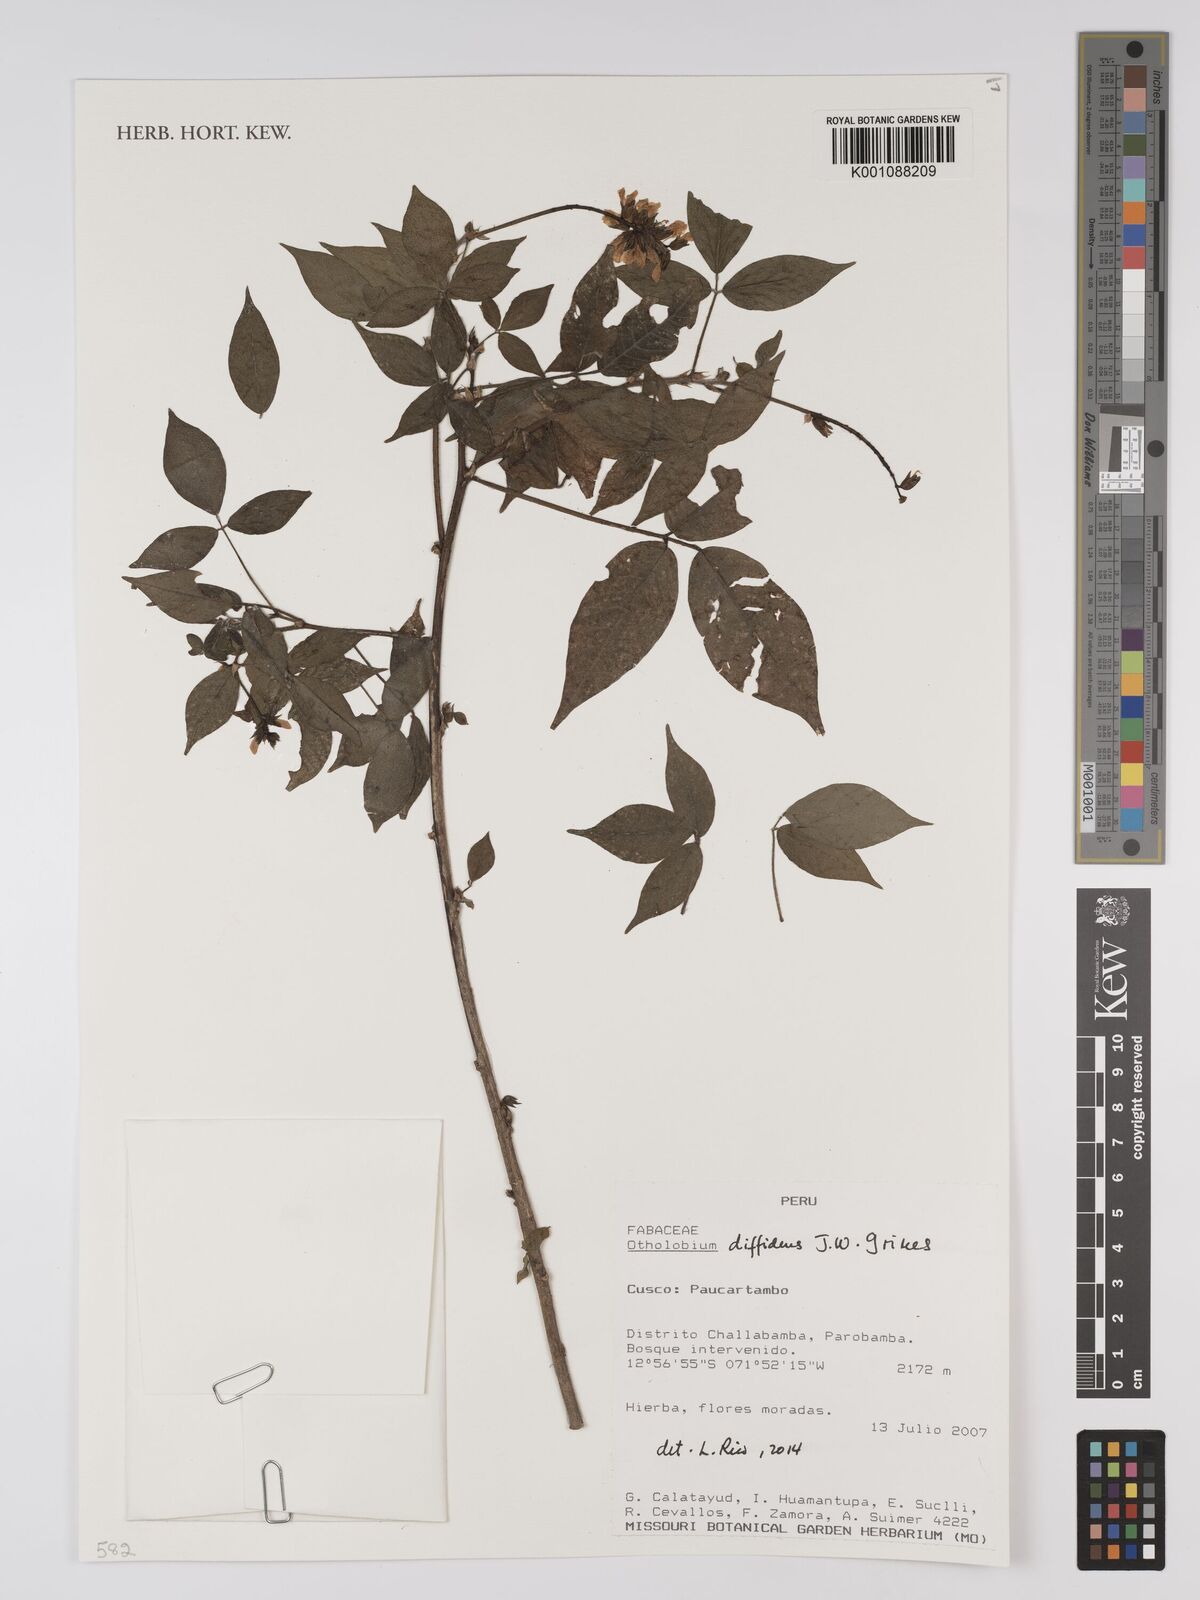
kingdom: Plantae
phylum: Tracheophyta
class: Magnoliopsida
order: Fabales
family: Fabaceae
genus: Psoralea
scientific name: Psoralea Otholobium diffidens
